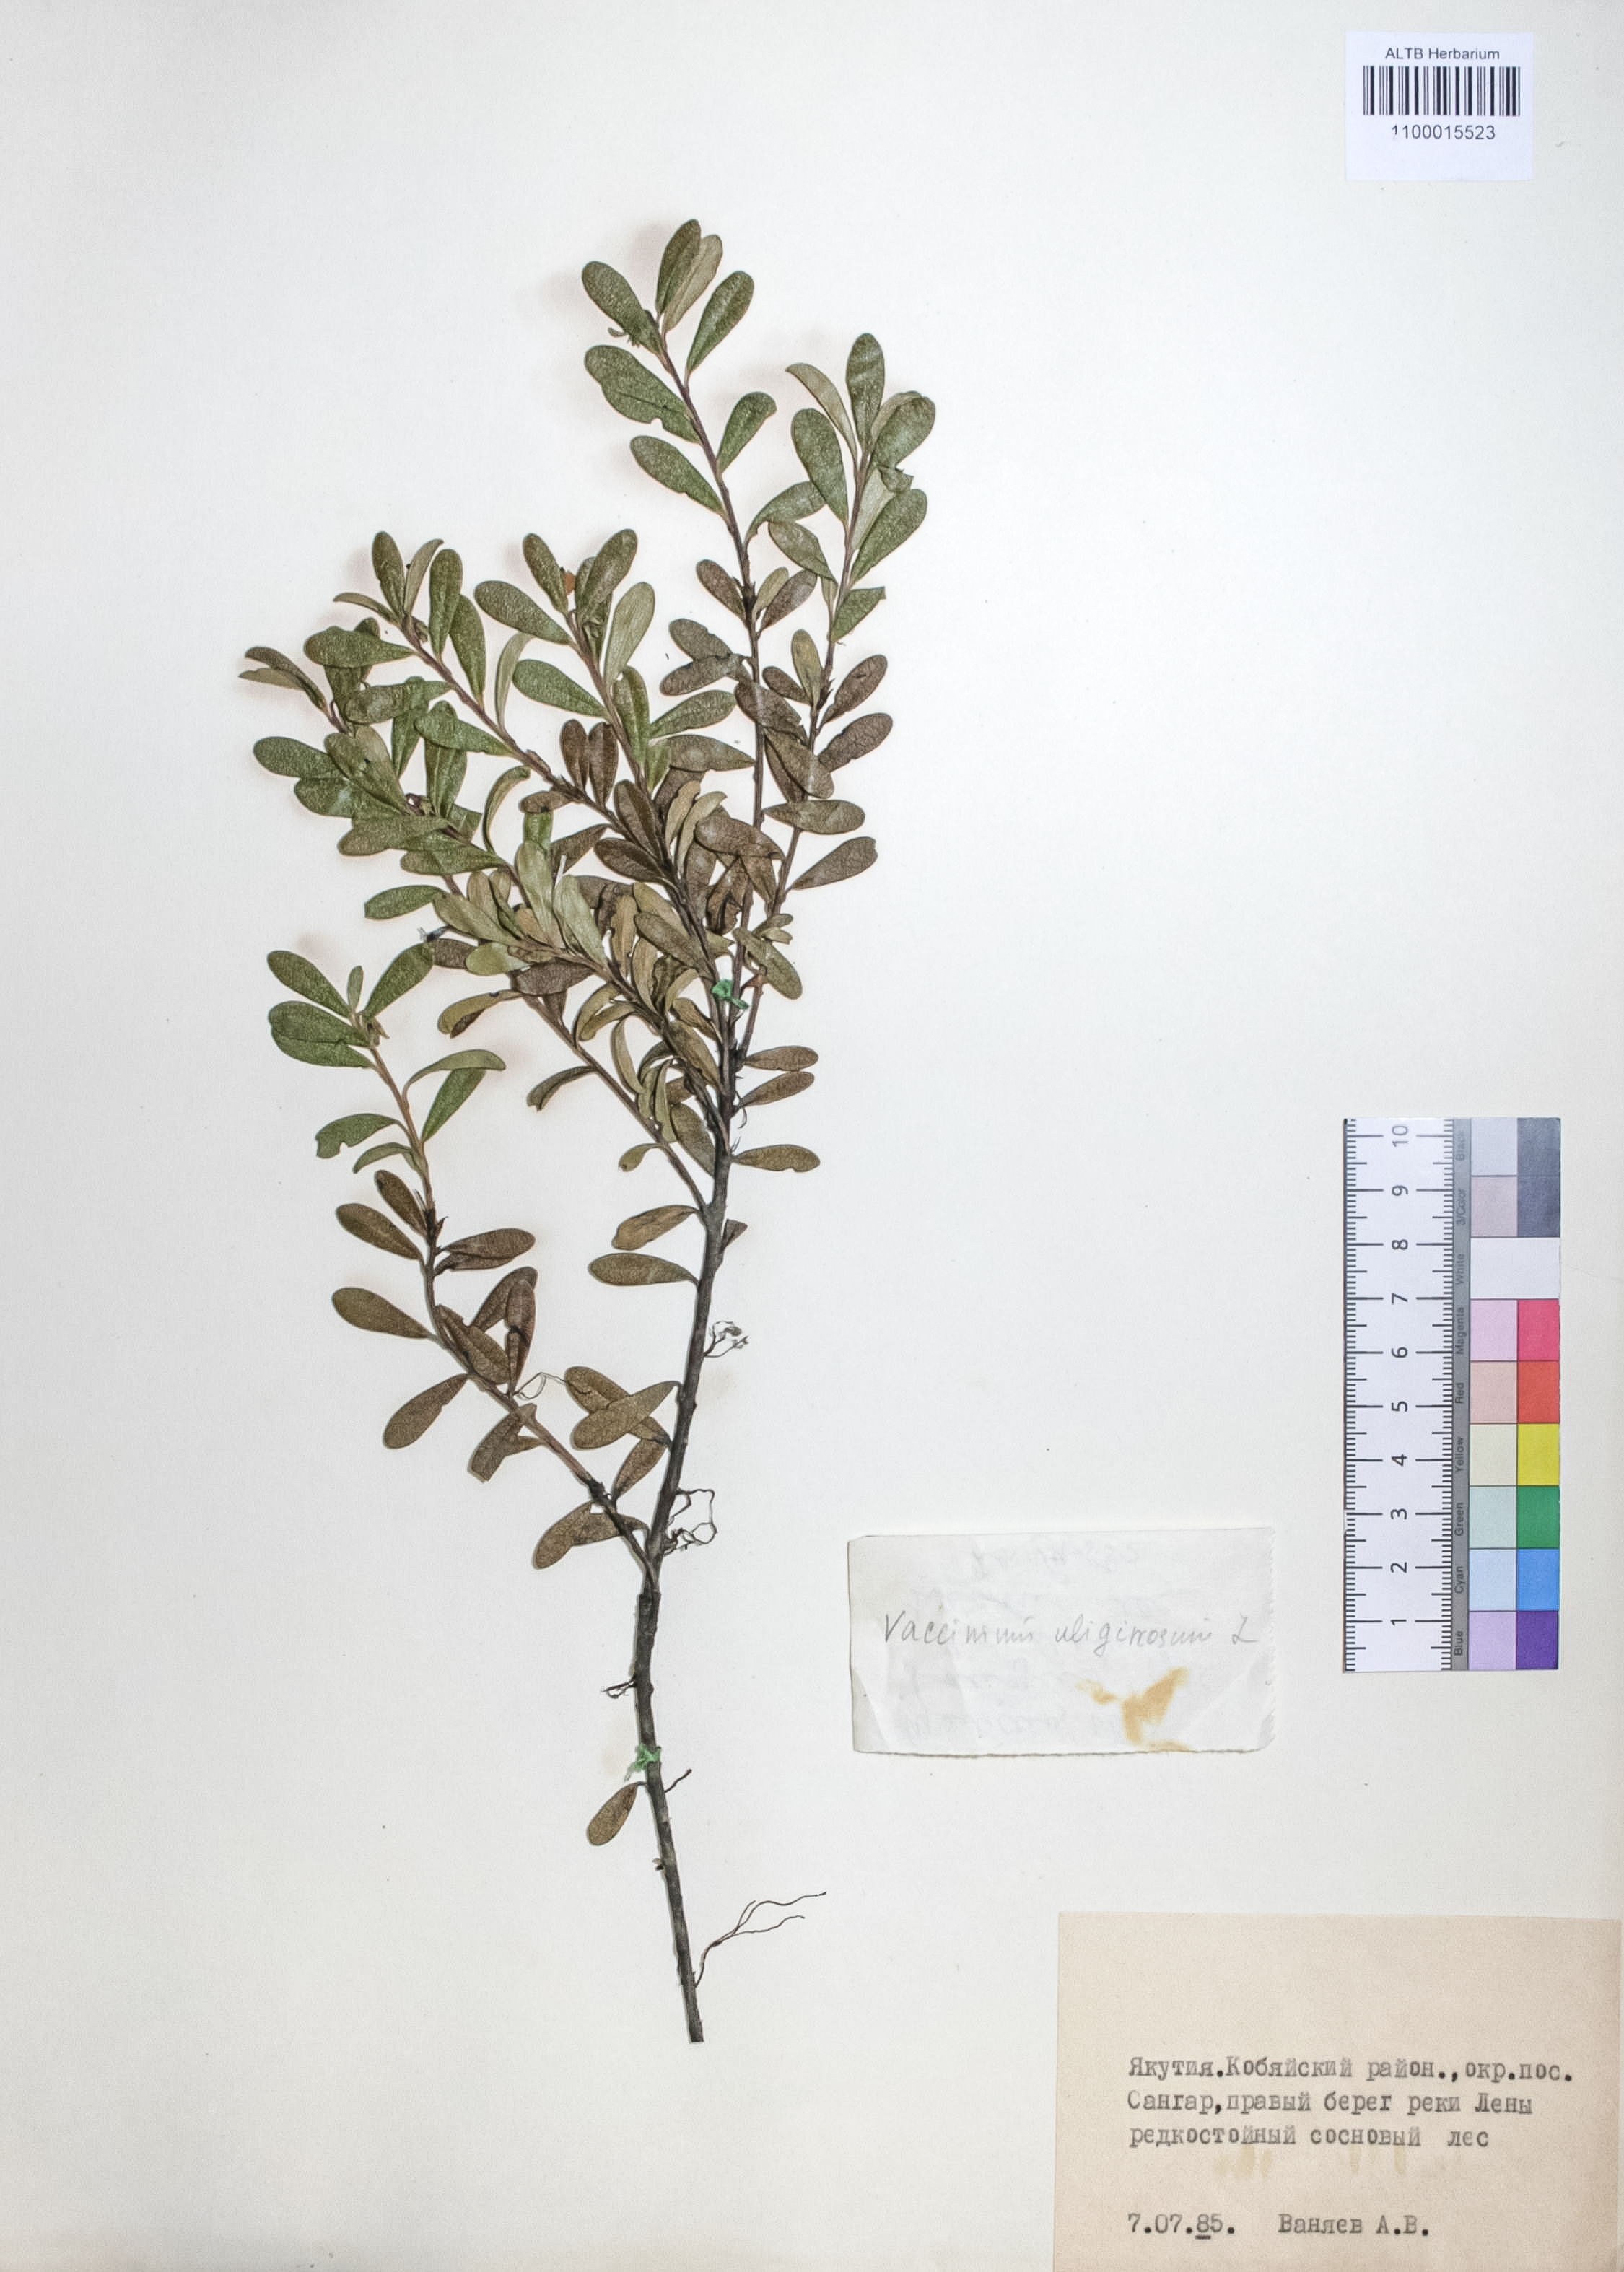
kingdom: Plantae
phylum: Tracheophyta
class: Magnoliopsida
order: Ericales
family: Ericaceae
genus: Vaccinium
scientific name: Vaccinium uliginosum
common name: Bog bilberry
